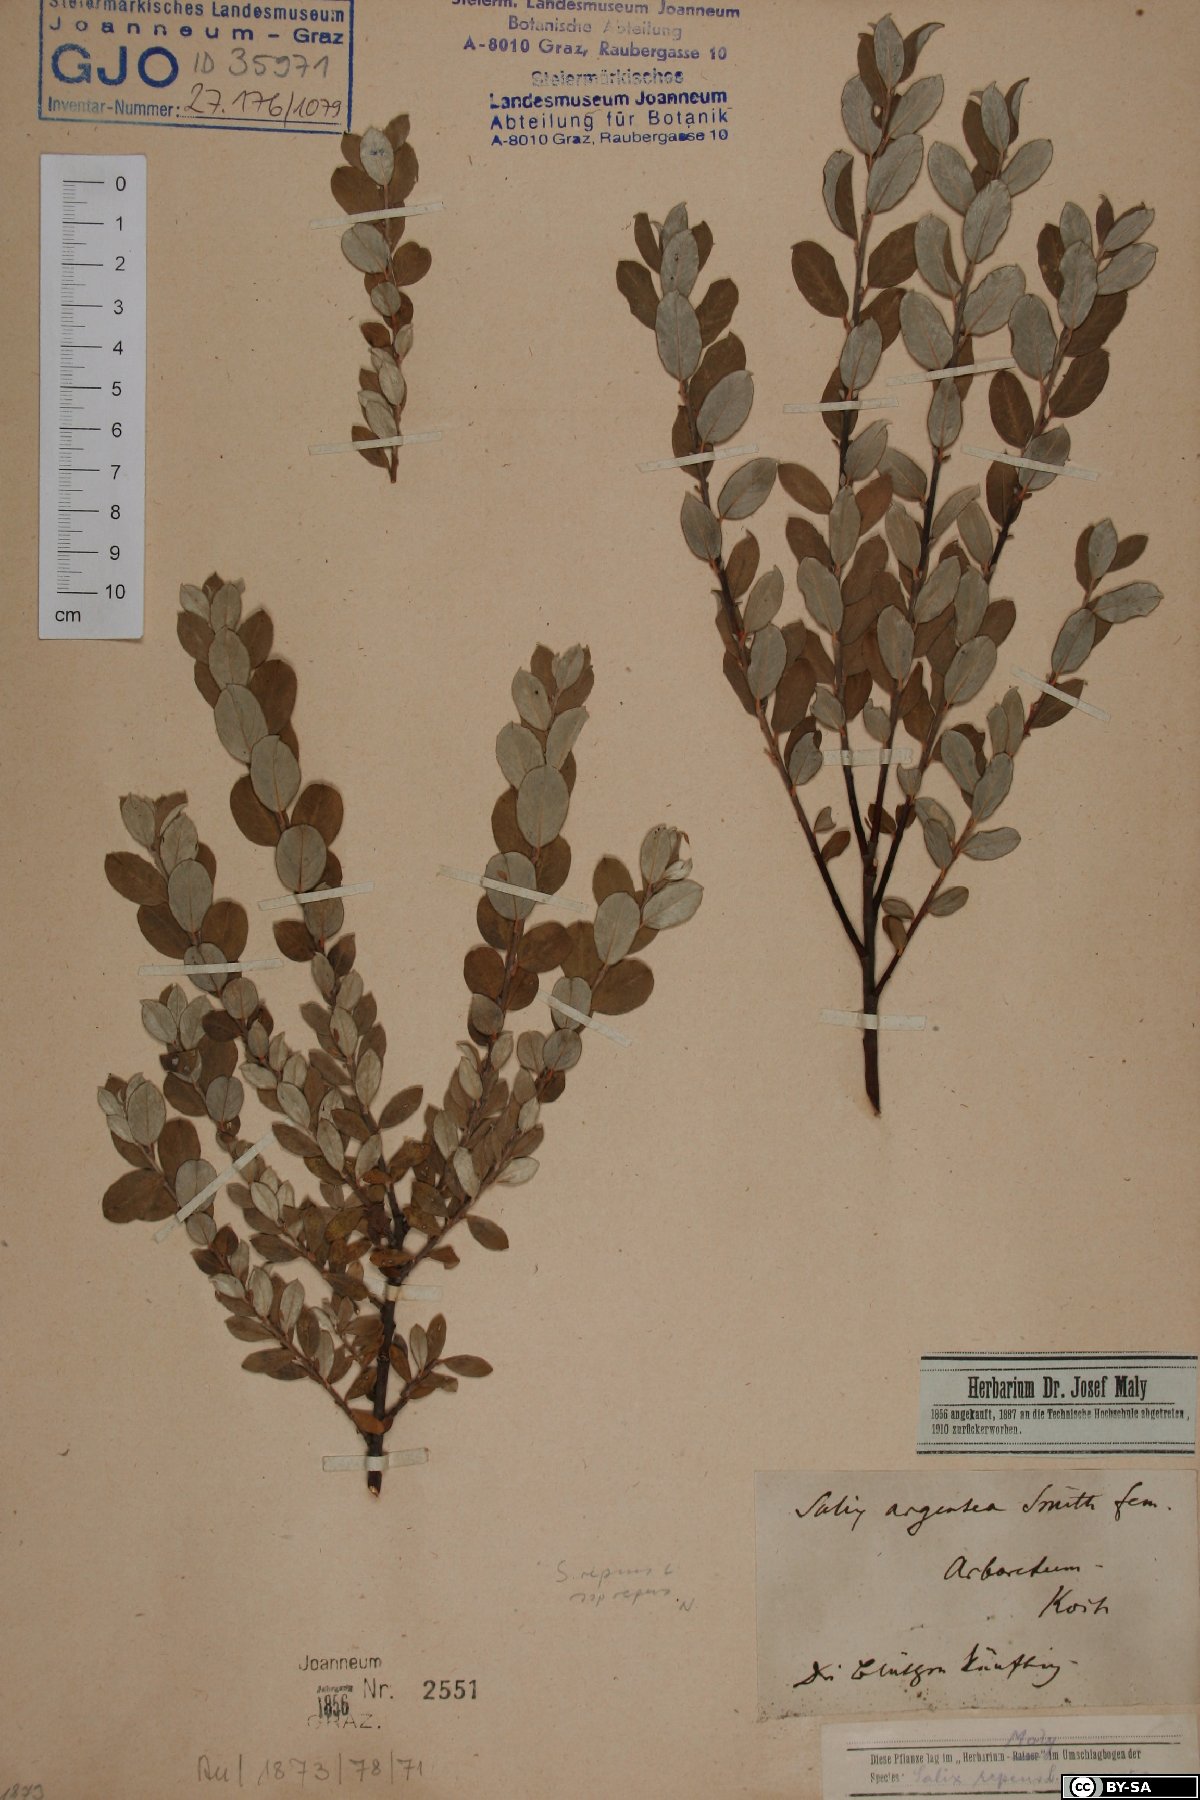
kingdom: Plantae
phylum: Tracheophyta
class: Magnoliopsida
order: Malpighiales
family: Salicaceae
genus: Salix
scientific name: Salix repens
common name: Creeping willow
